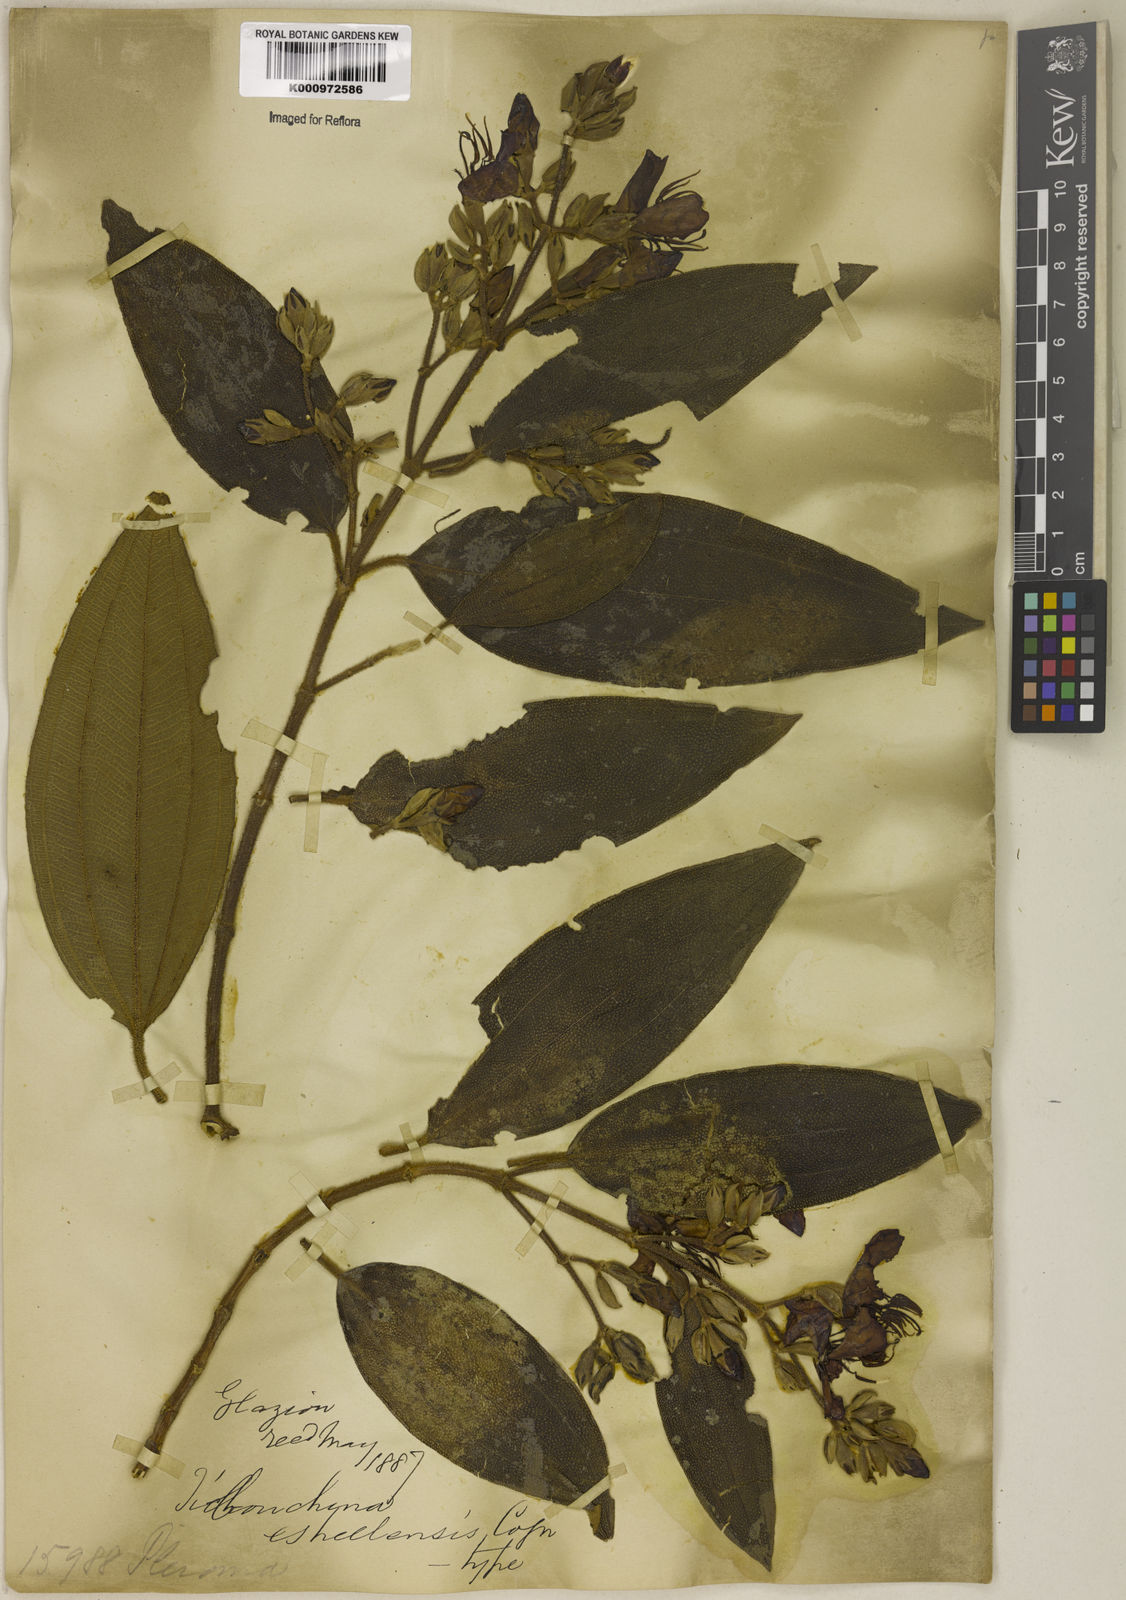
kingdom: Plantae
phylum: Tracheophyta
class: Magnoliopsida
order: Myrtales
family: Melastomataceae
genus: Pleroma
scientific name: Pleroma estrellense
